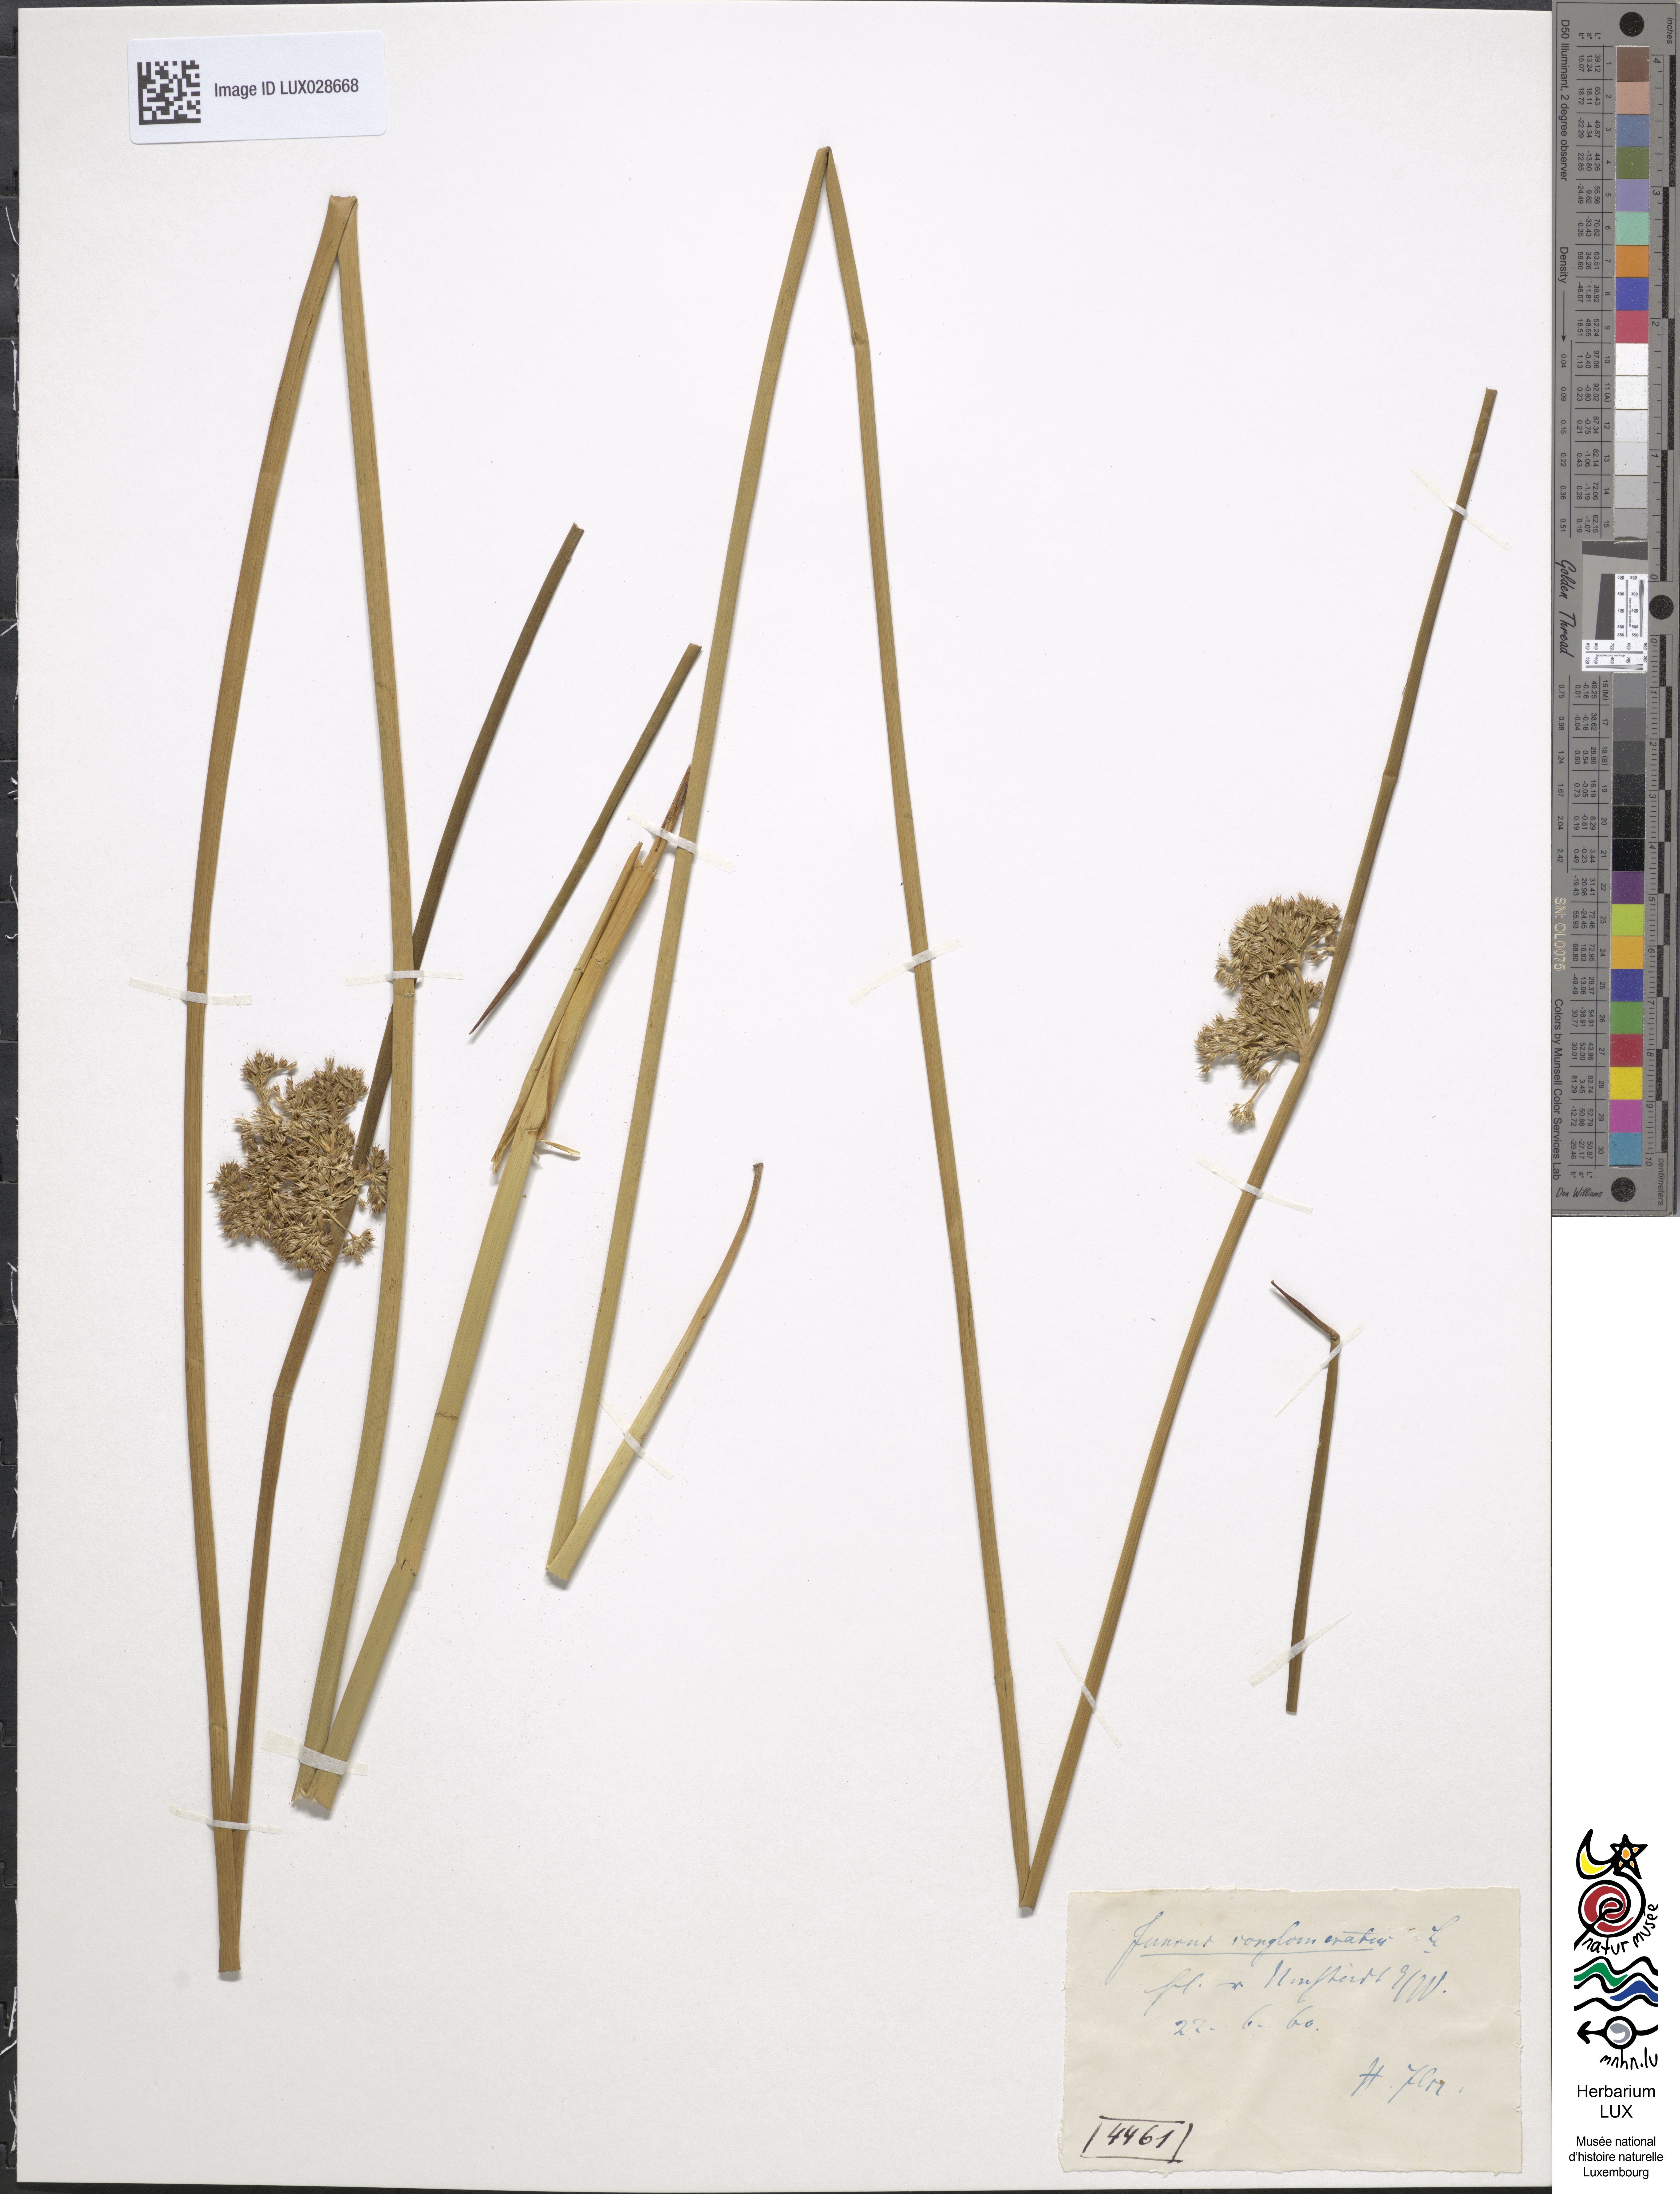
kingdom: Plantae
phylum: Tracheophyta
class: Liliopsida
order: Poales
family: Juncaceae
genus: Juncus
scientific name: Juncus conglomeratus
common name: Compact rush
